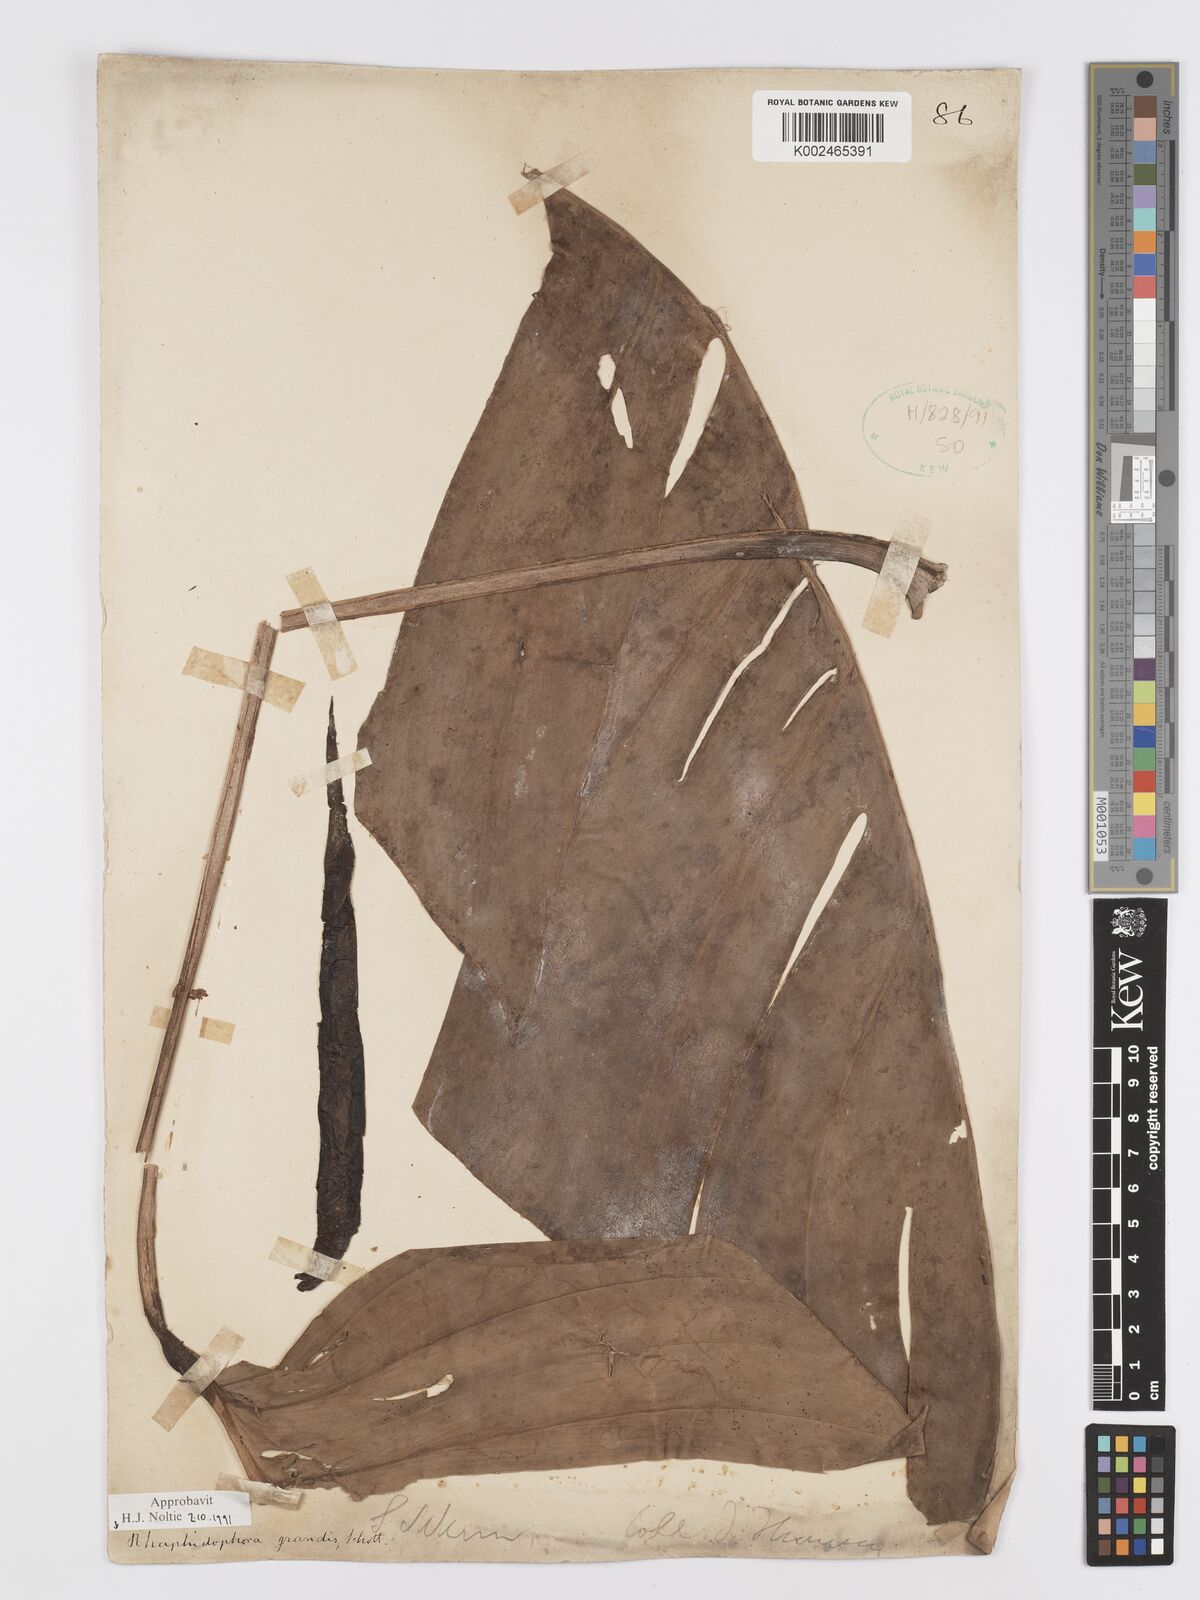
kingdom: Plantae
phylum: Tracheophyta
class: Liliopsida
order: Alismatales
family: Araceae
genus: Rhaphidophora
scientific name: Rhaphidophora decursiva
